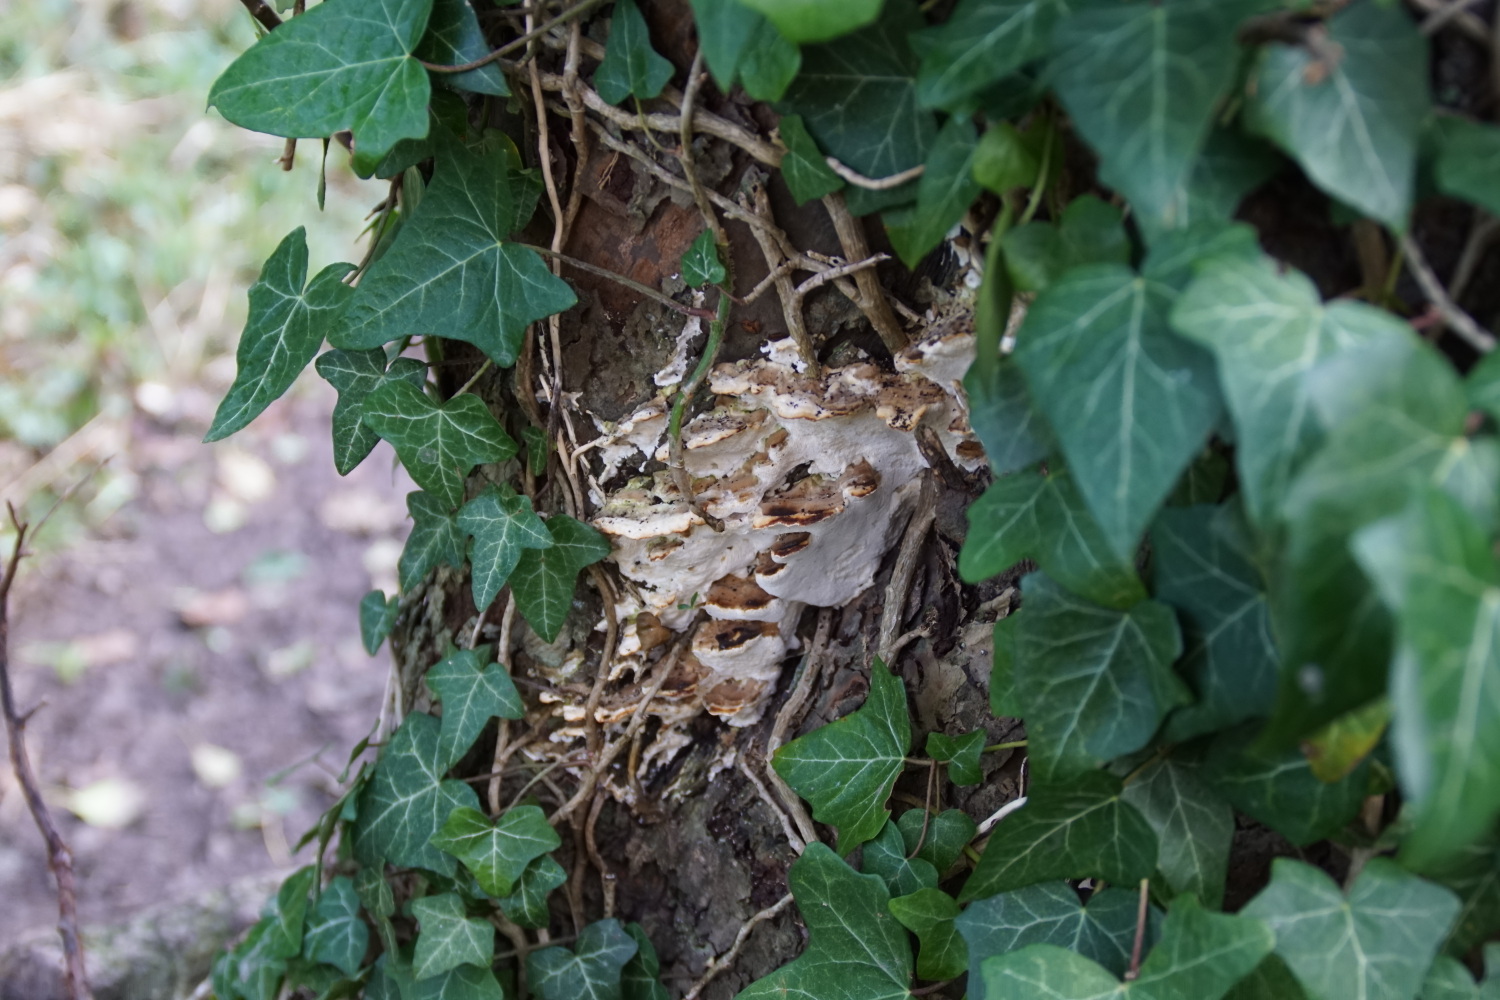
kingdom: Fungi
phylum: Basidiomycota
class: Agaricomycetes
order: Hymenochaetales
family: Oxyporaceae
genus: Oxyporus
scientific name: Oxyporus populinus
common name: sammenvokset trylleporesvamp
